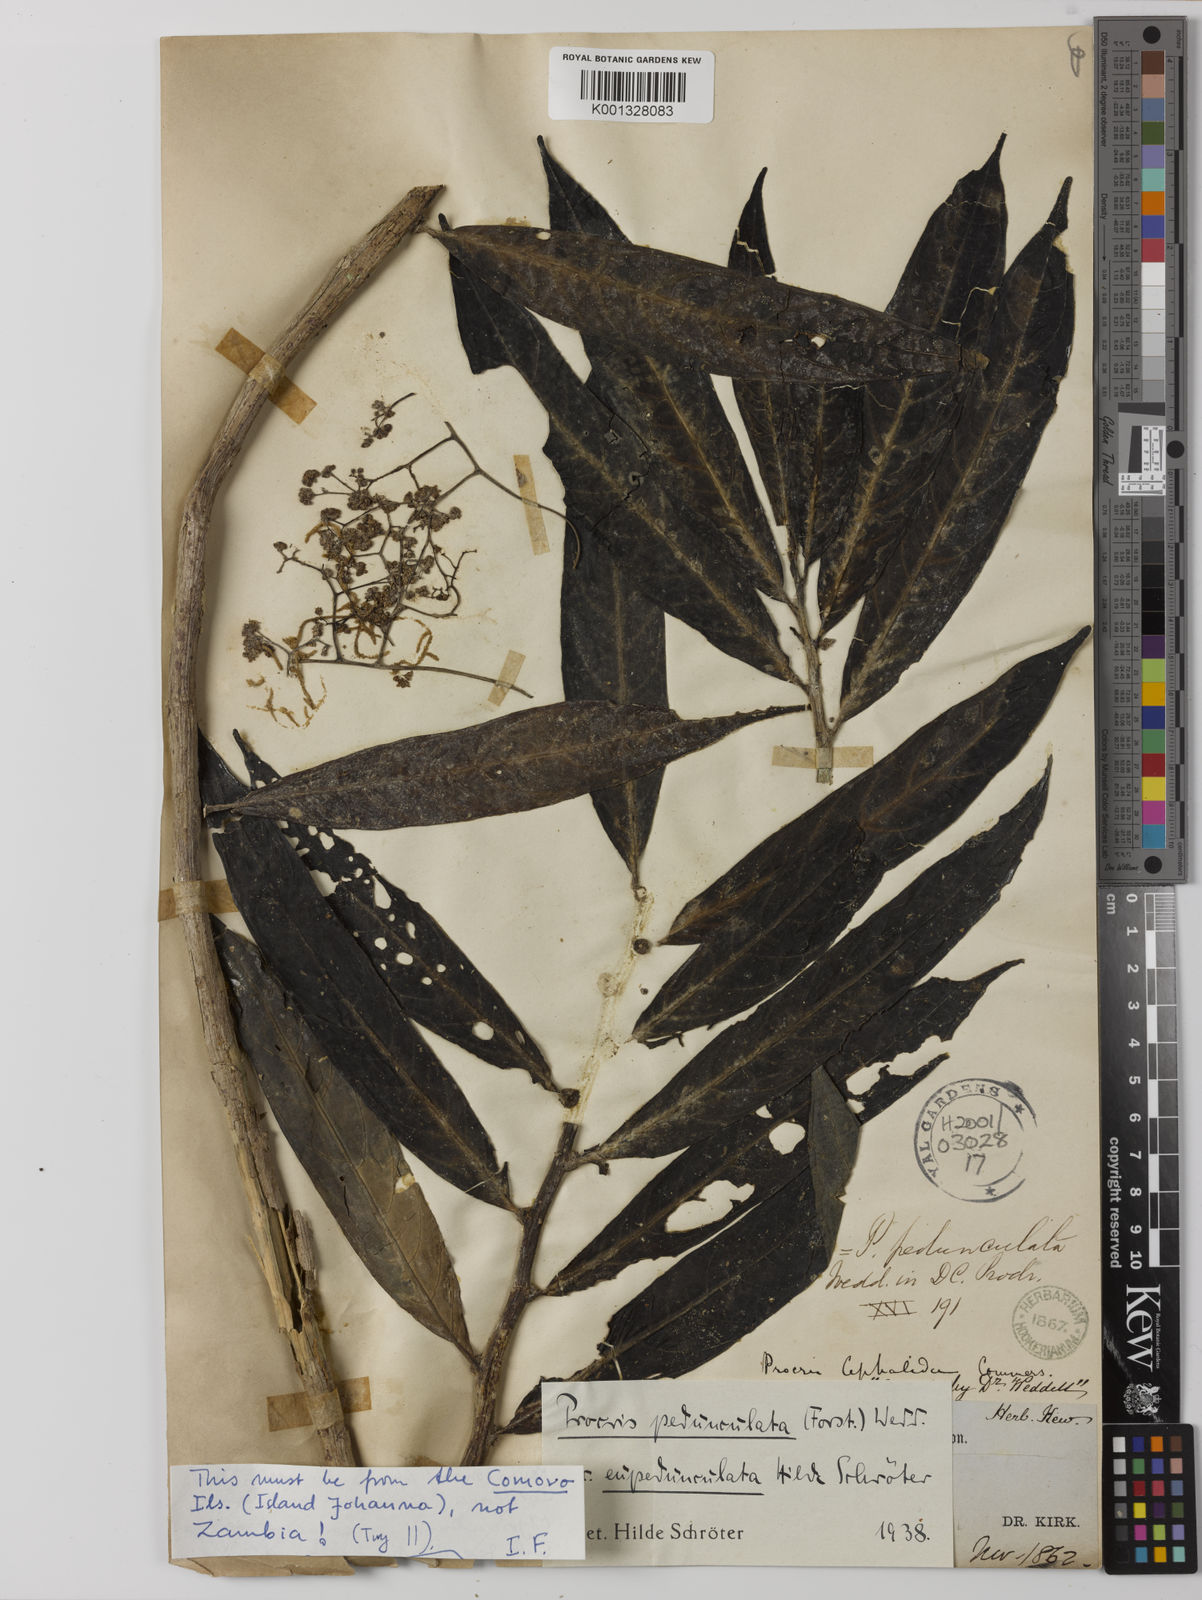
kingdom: Plantae
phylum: Tracheophyta
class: Magnoliopsida
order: Rosales
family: Urticaceae
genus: Procris
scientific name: Procris pedunculata
